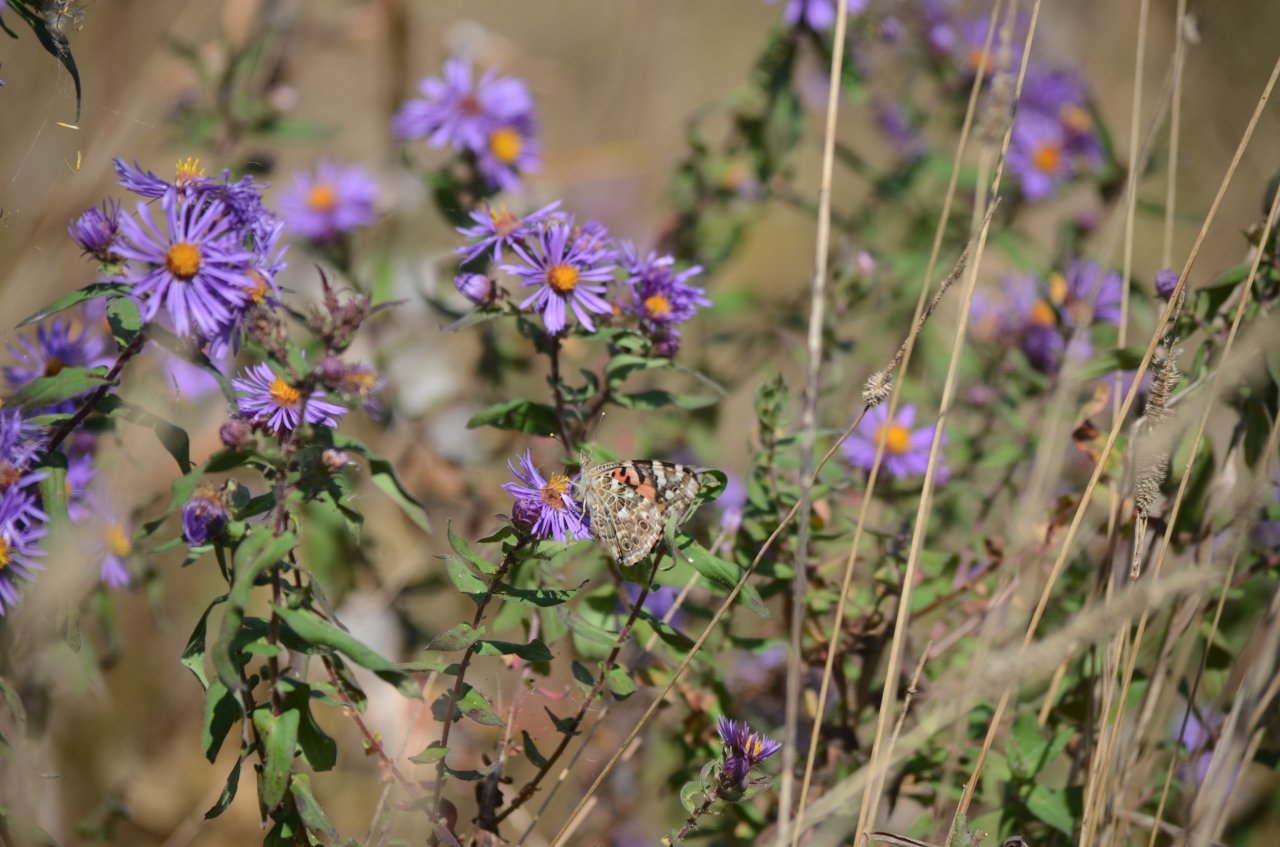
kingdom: Animalia
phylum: Arthropoda
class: Insecta
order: Lepidoptera
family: Nymphalidae
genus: Vanessa
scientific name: Vanessa cardui
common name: Painted Lady
